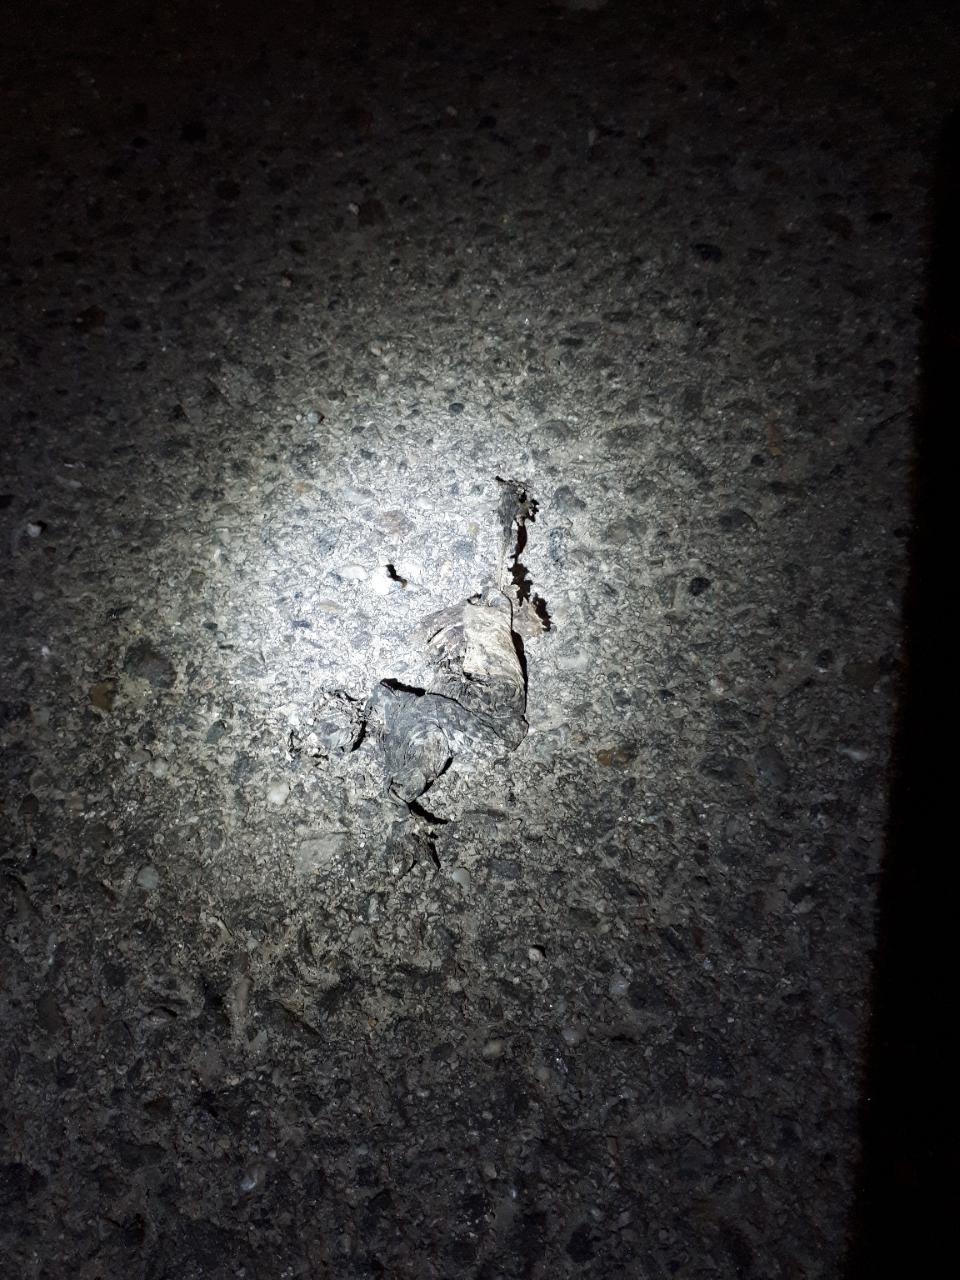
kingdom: Animalia
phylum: Chordata
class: Amphibia
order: Anura
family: Bufonidae
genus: Bufotes
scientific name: Bufotes viridis
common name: European green toad
